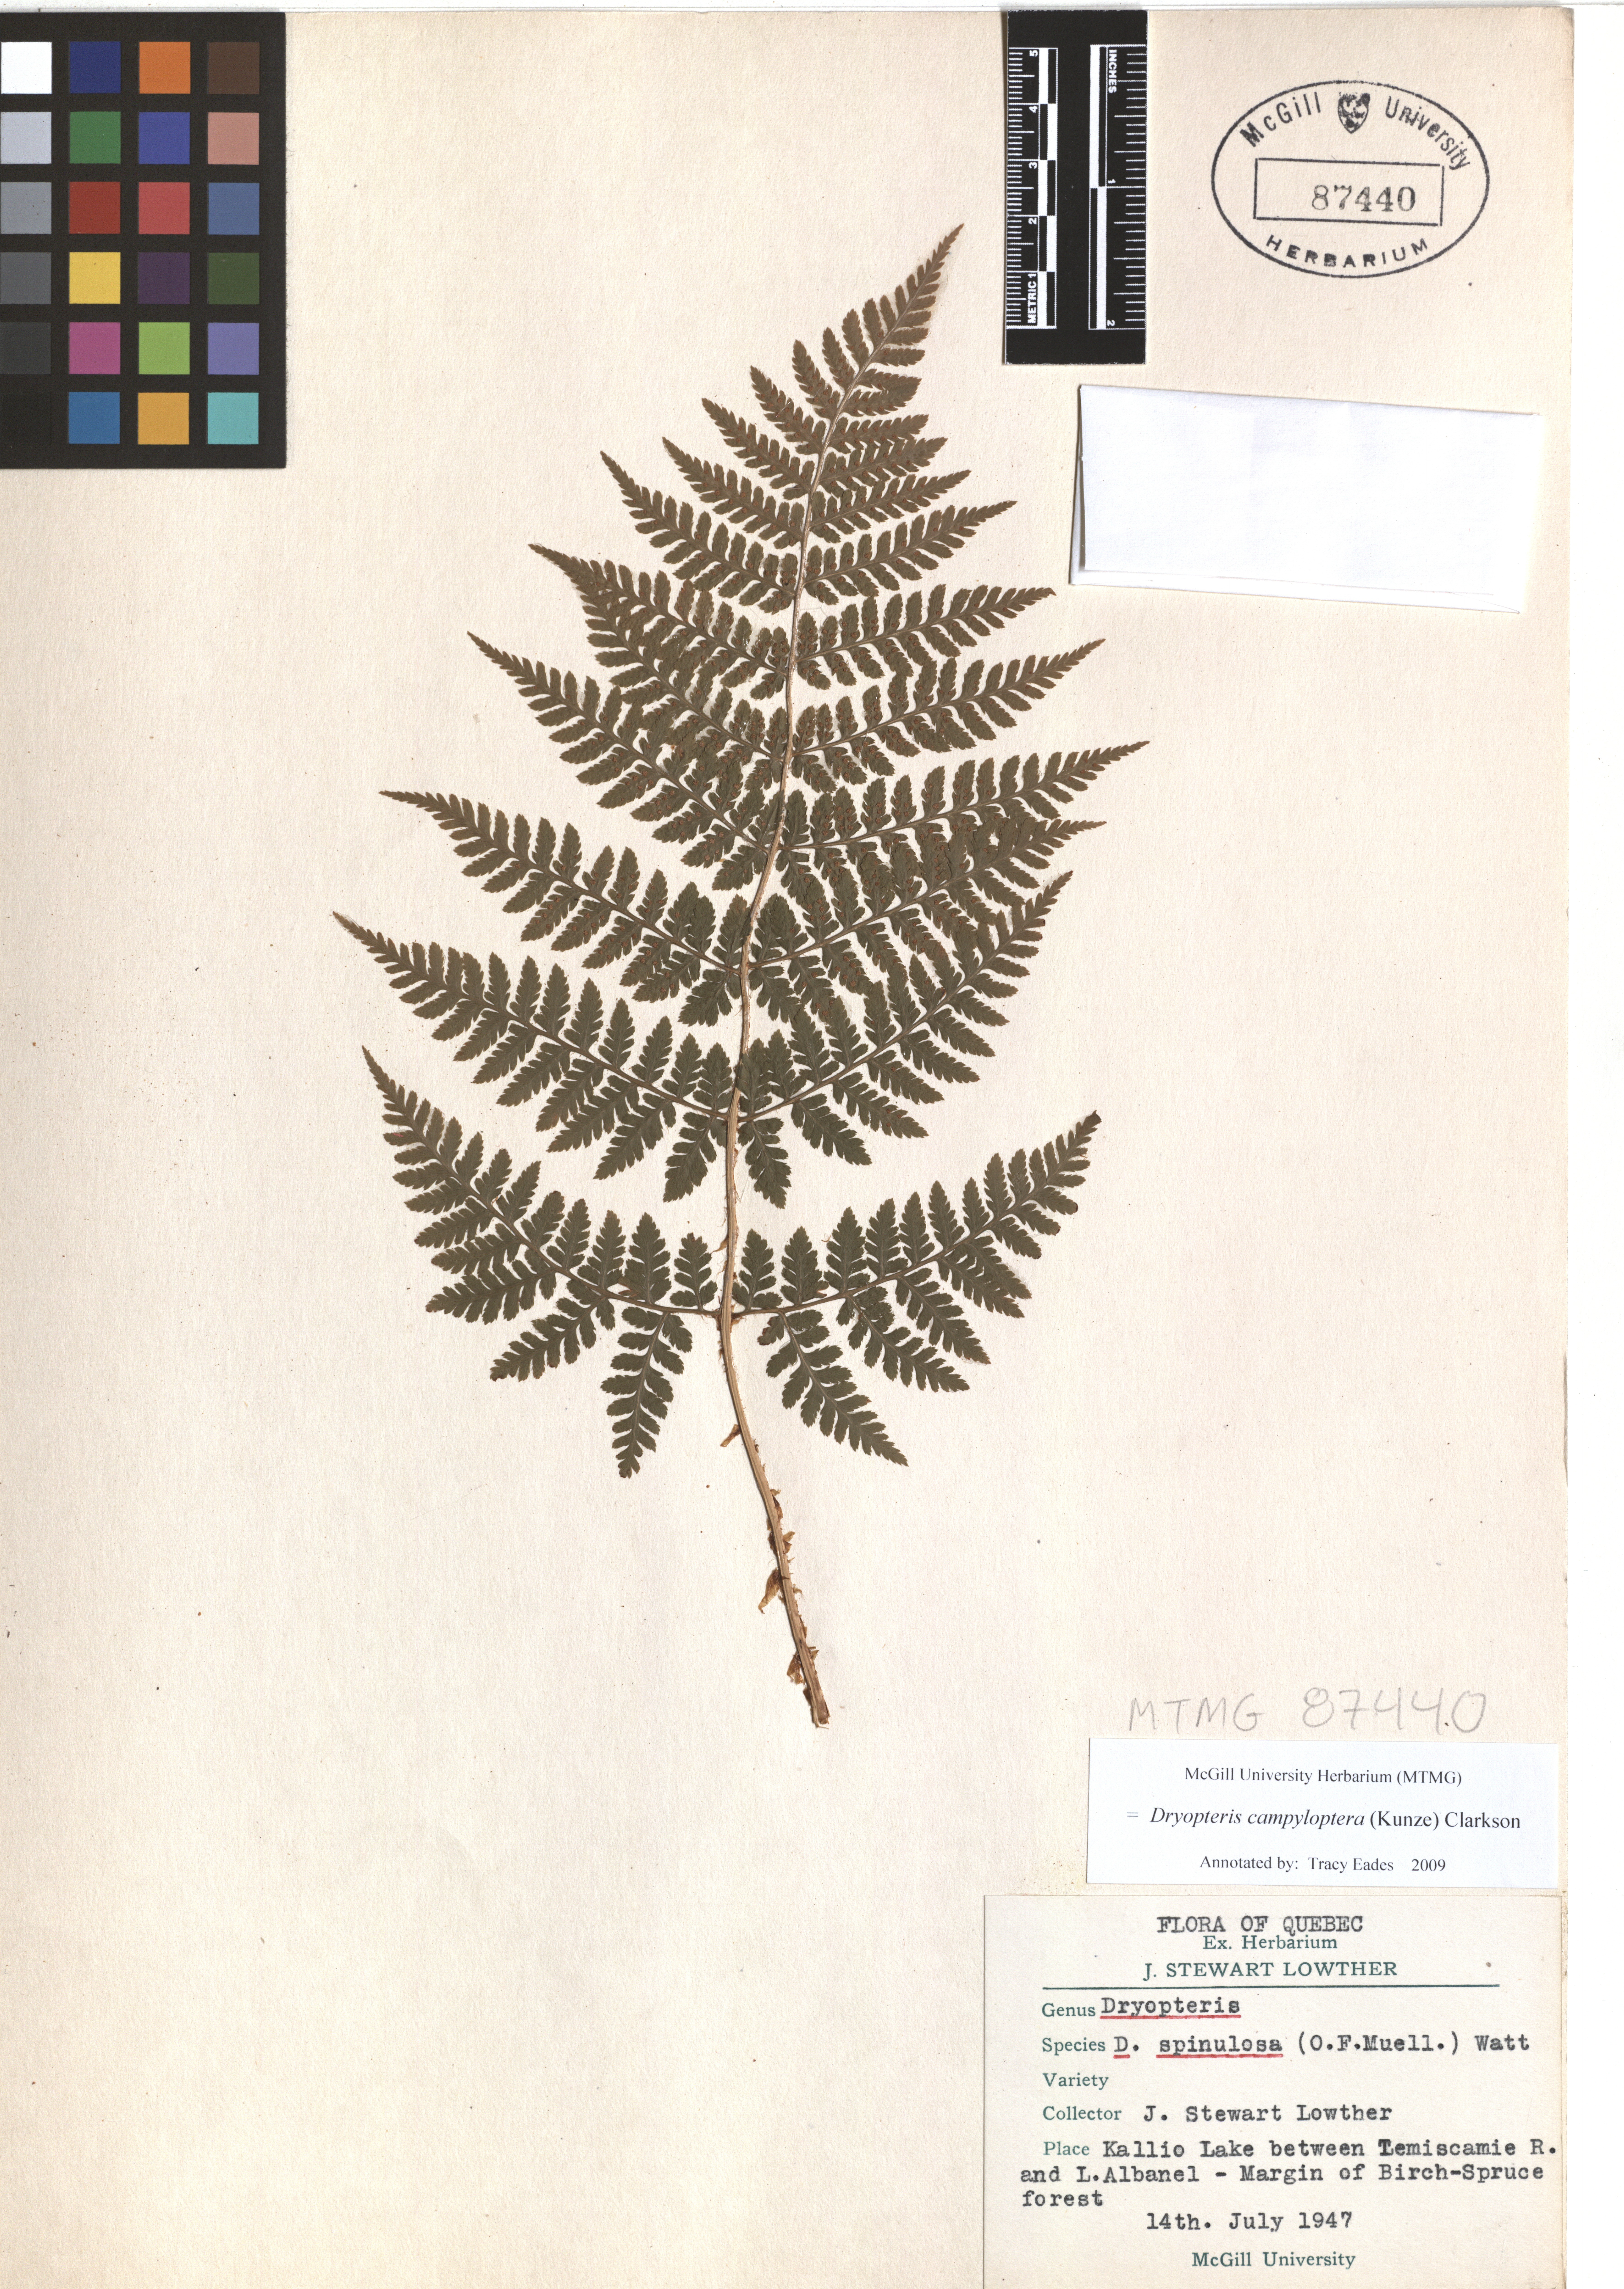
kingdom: Plantae
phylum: Tracheophyta
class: Polypodiopsida
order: Polypodiales
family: Dryopteridaceae
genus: Dryopteris
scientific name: Dryopteris campyloptera
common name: Mountain wood fern
